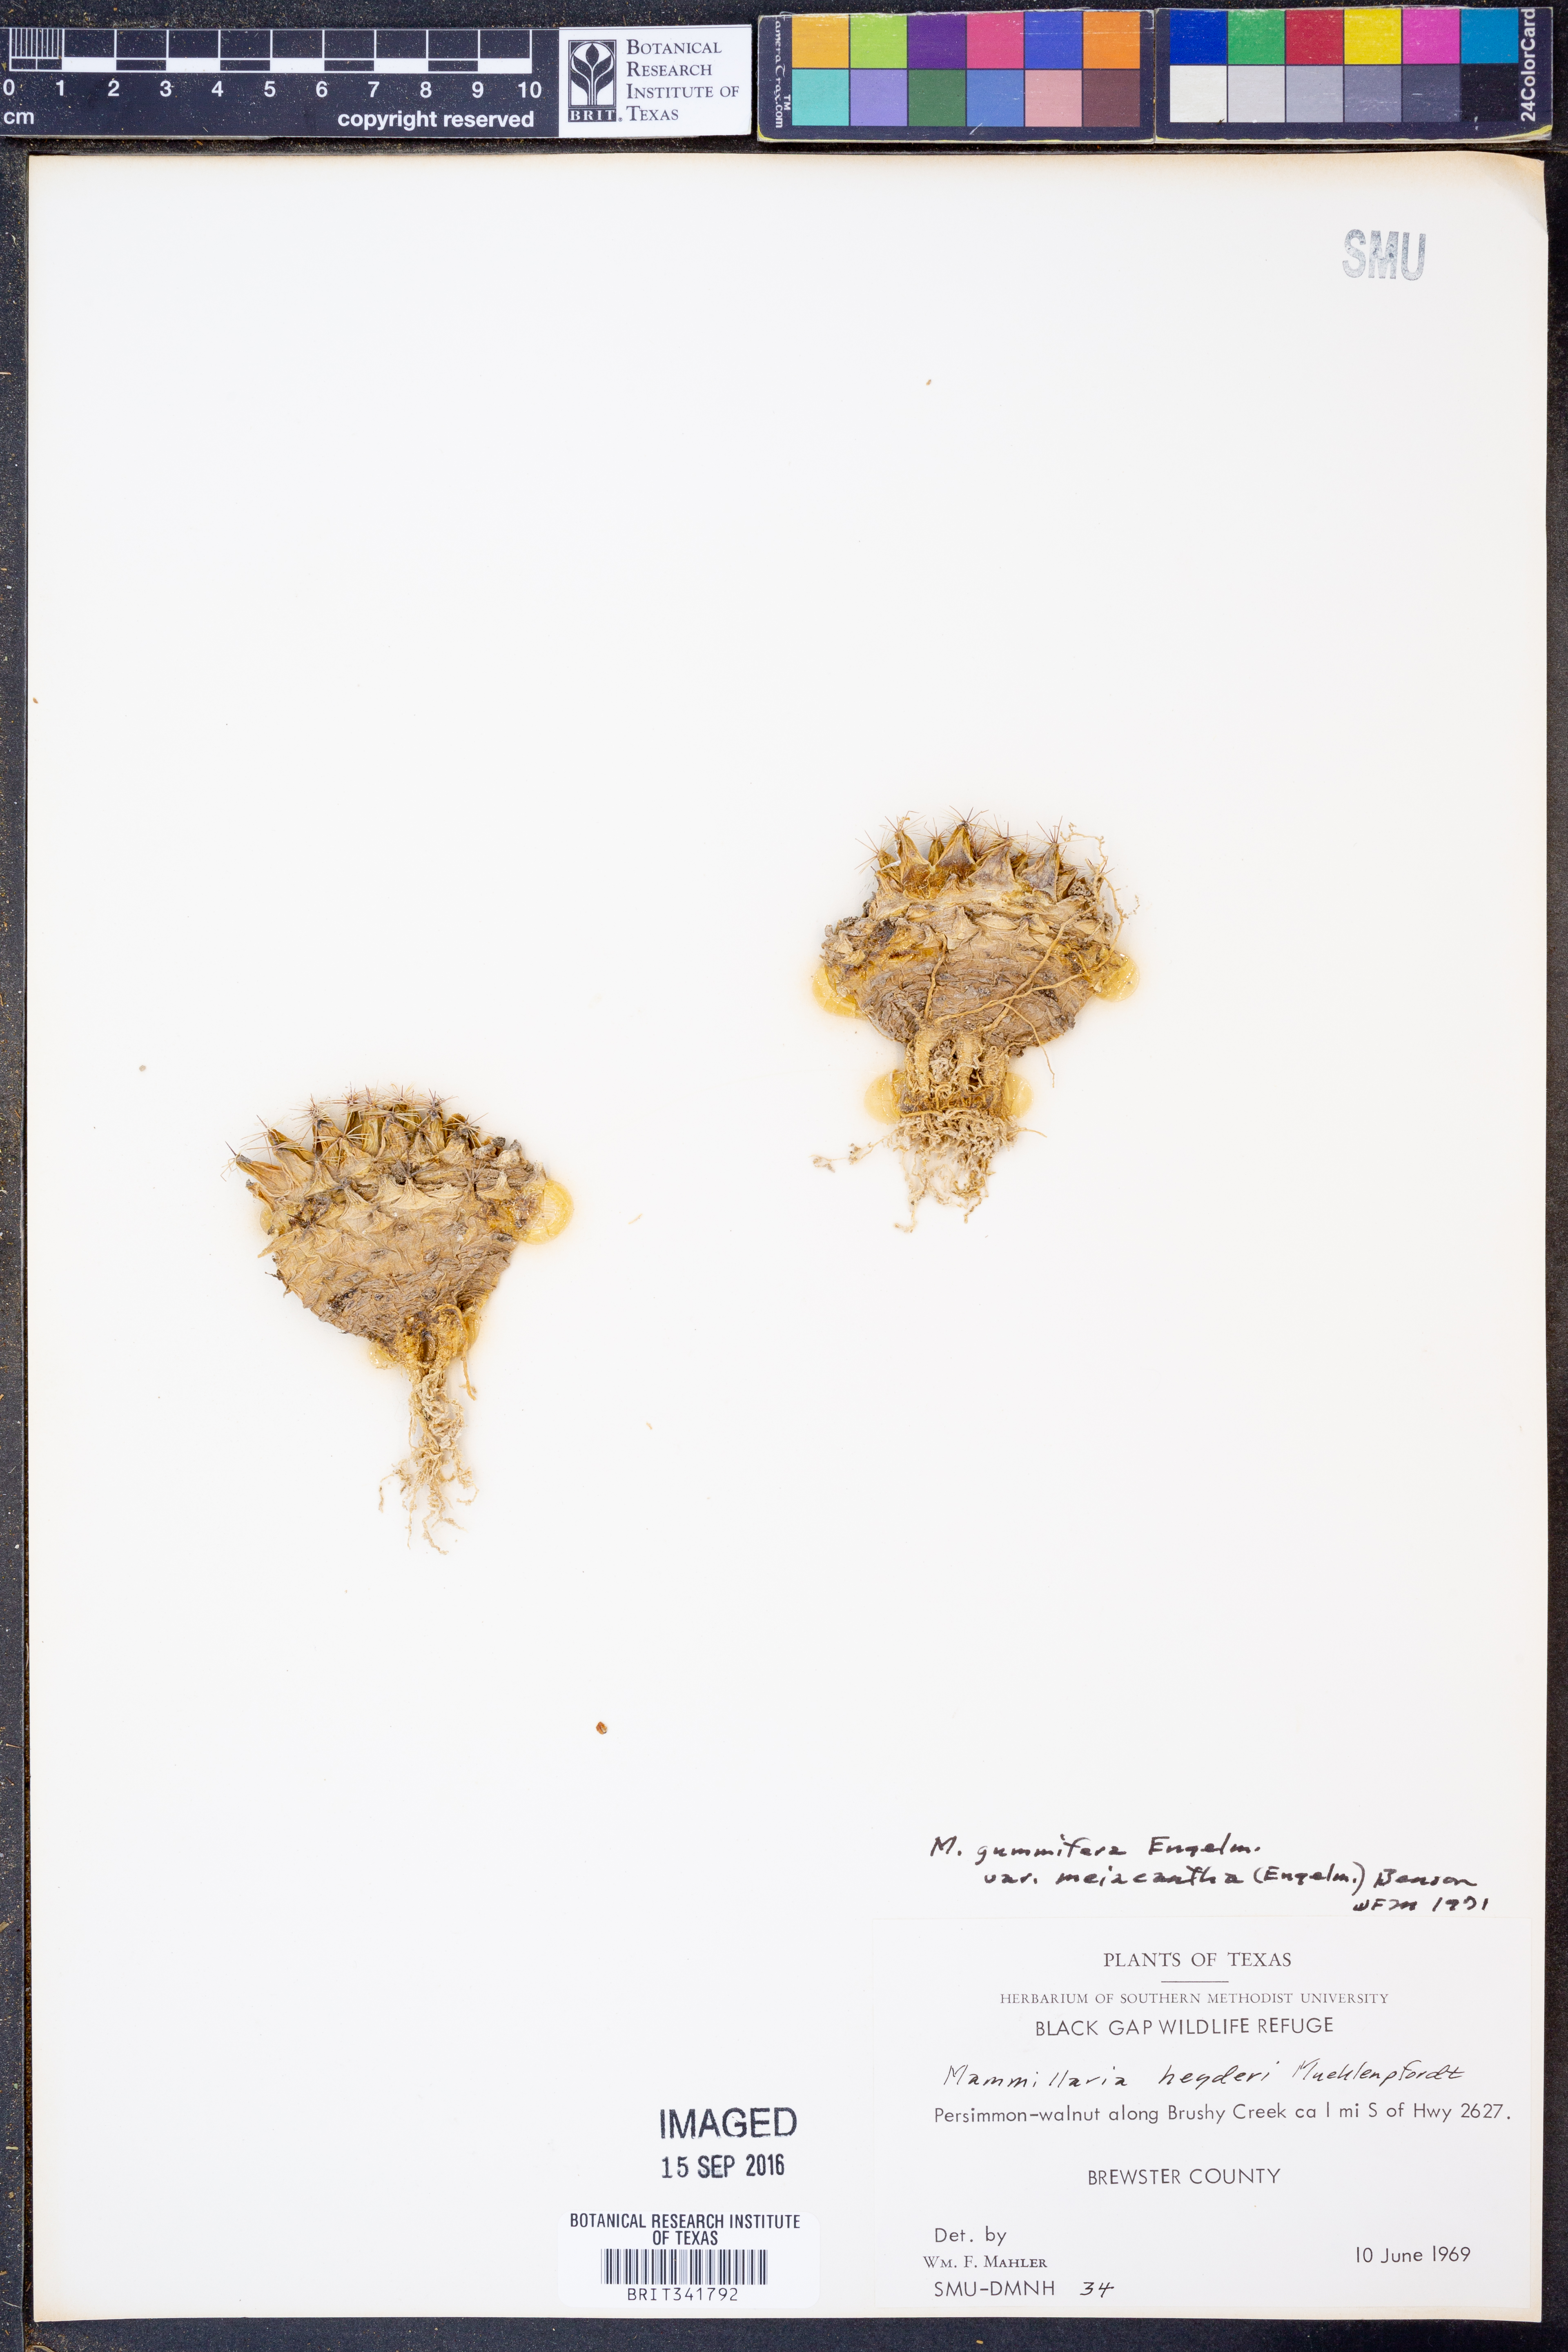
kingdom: Plantae
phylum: Tracheophyta
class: Magnoliopsida
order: Caryophyllales
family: Cactaceae
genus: Mammillaria
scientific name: Mammillaria heyderi
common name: Little nipple cactus
